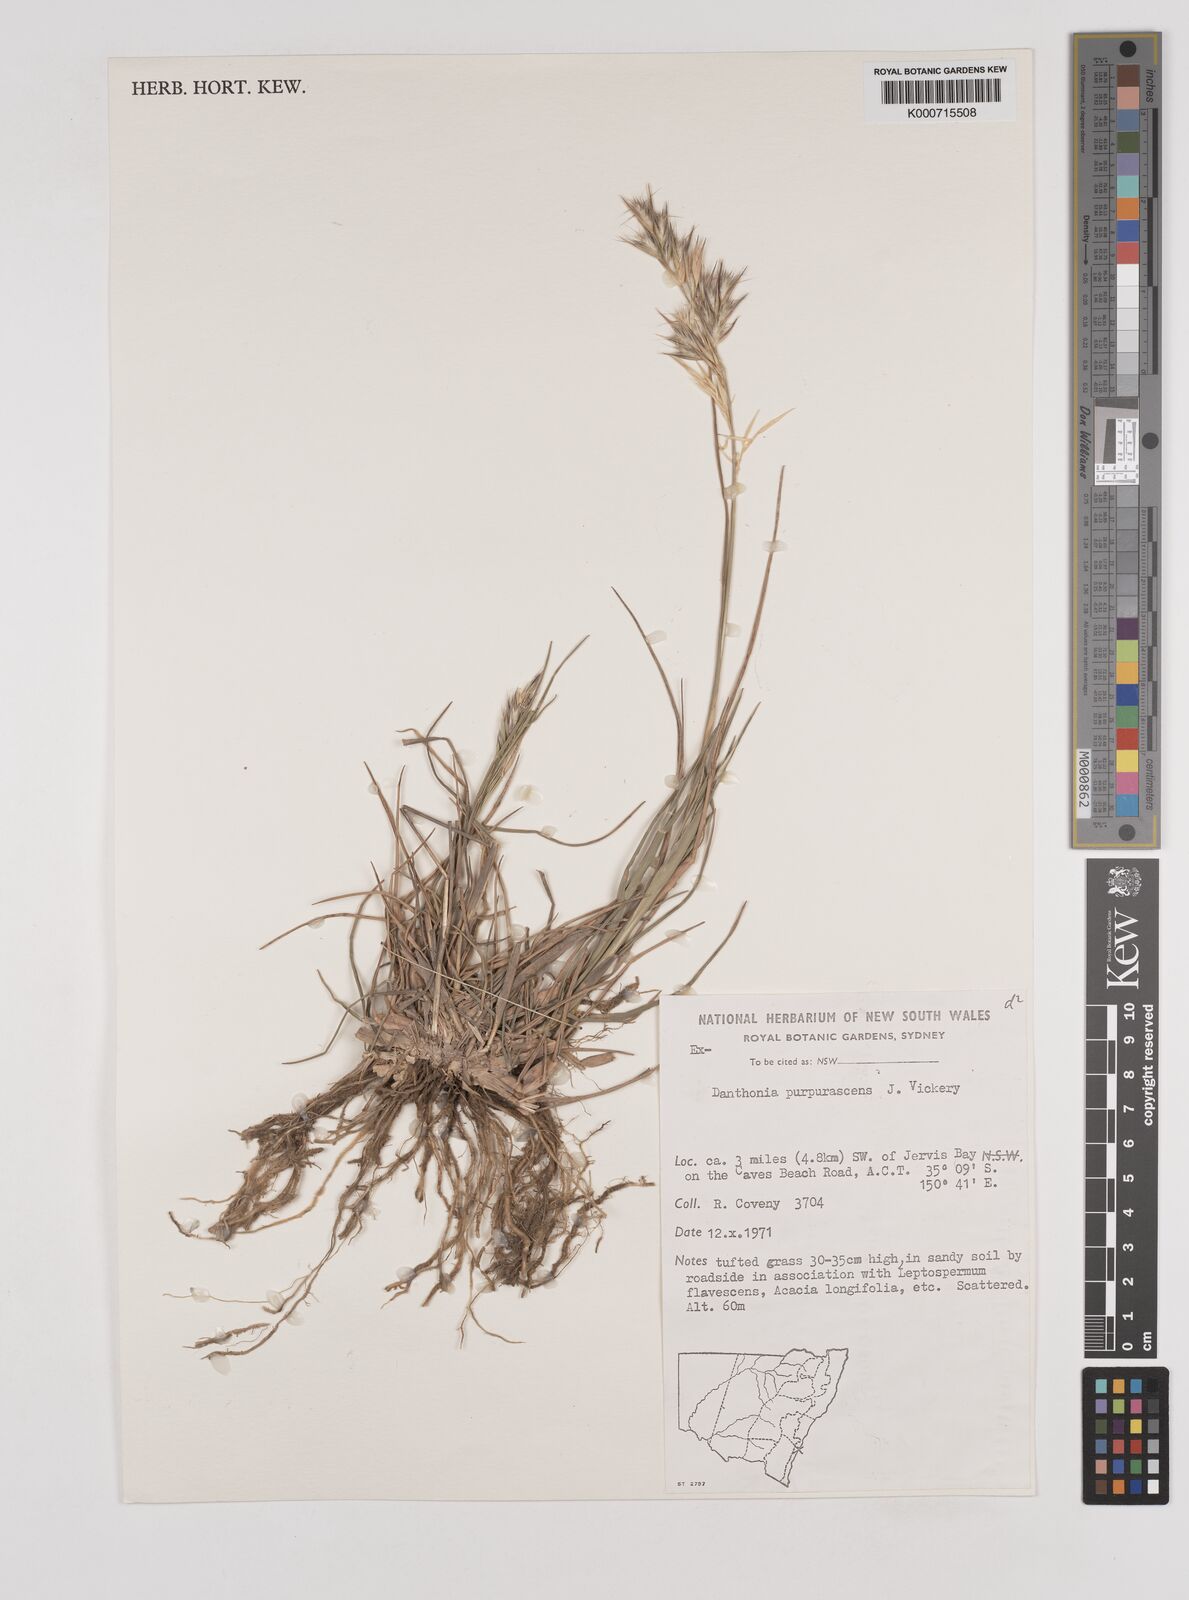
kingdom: Plantae
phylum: Tracheophyta
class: Liliopsida
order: Poales
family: Poaceae
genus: Rytidosperma
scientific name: Rytidosperma tenuius
